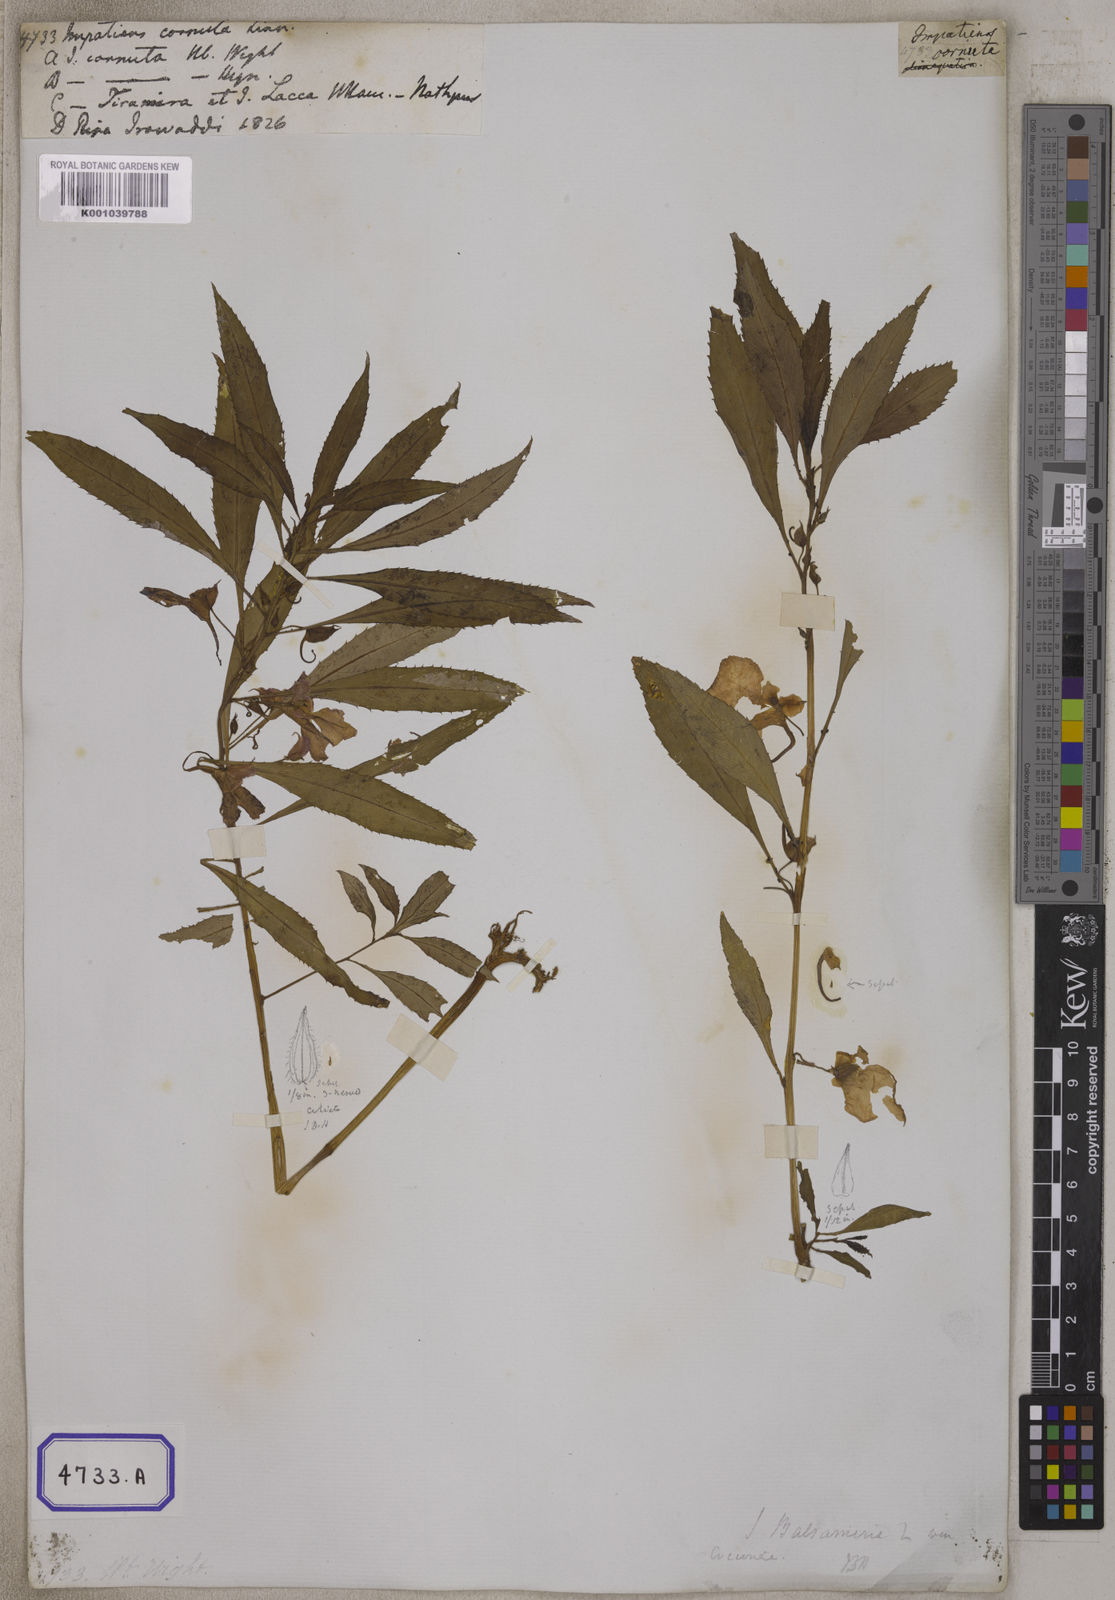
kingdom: Plantae
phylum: Tracheophyta
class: Magnoliopsida
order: Ericales
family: Balsaminaceae
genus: Impatiens
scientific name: Impatiens balsamina
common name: Balsam
